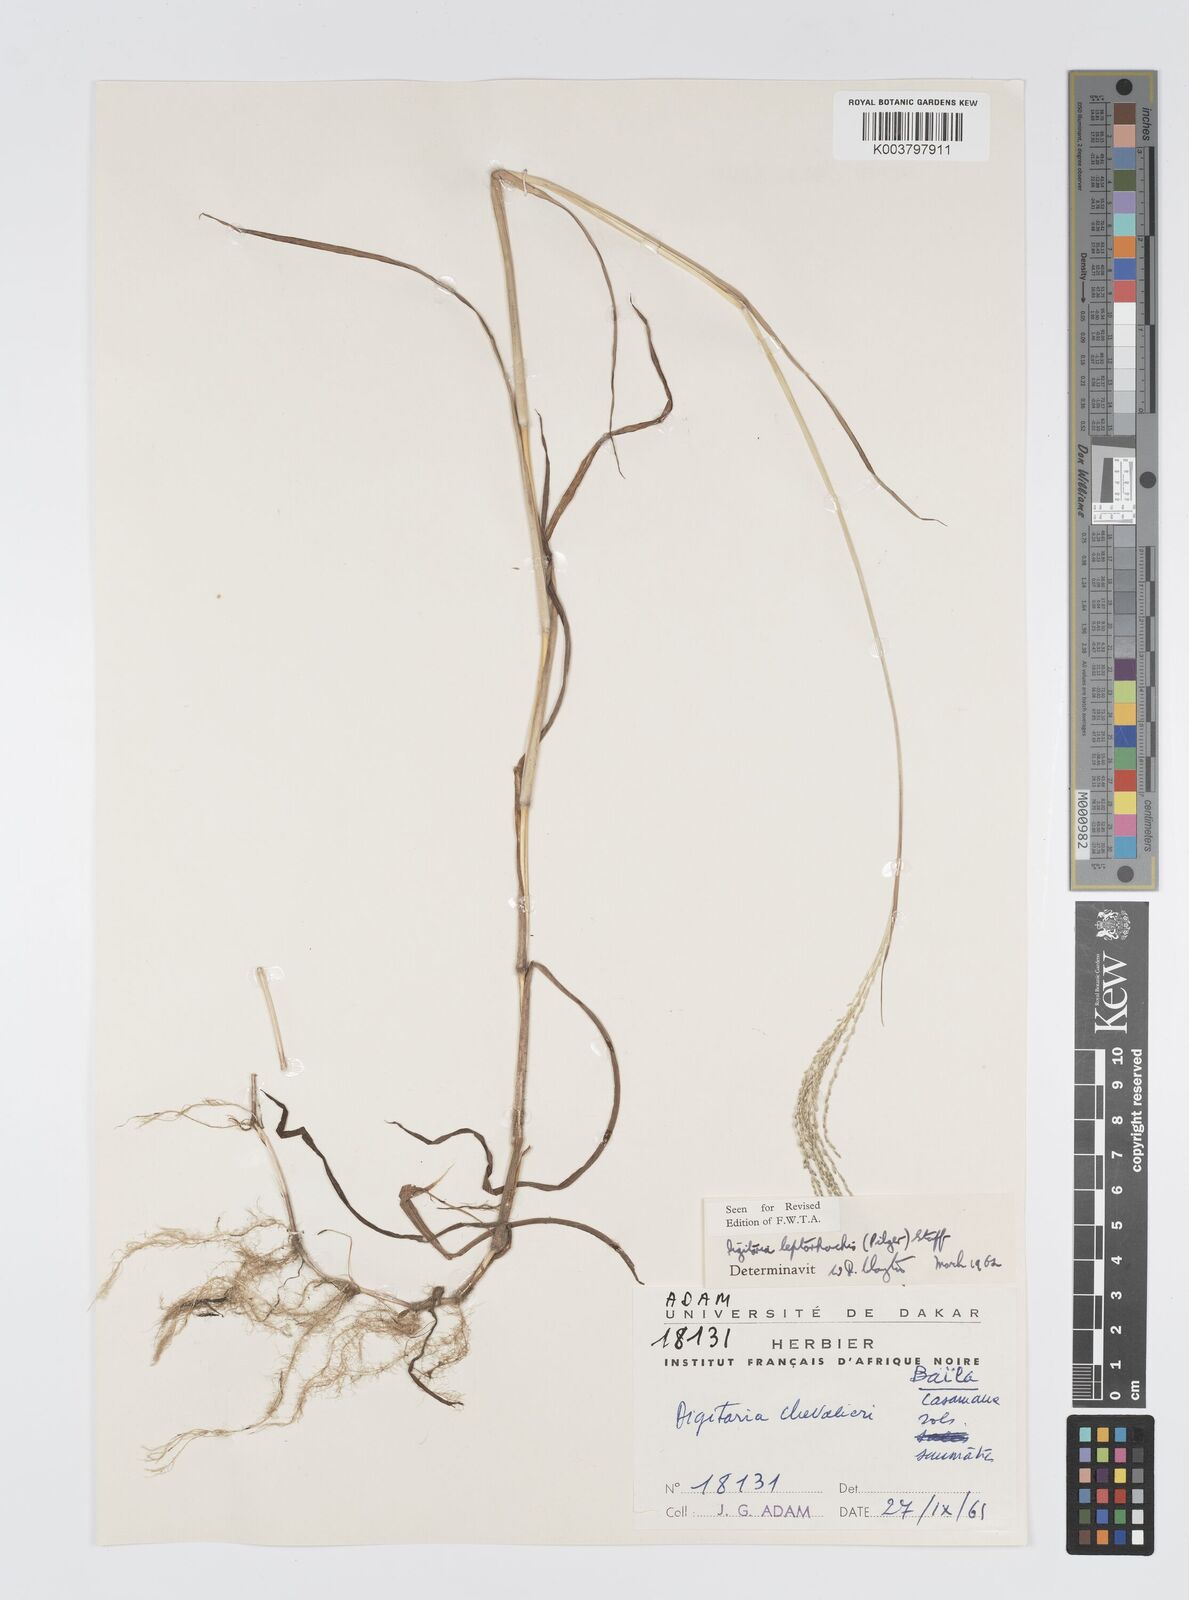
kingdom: Plantae
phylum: Tracheophyta
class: Liliopsida
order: Poales
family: Poaceae
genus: Digitaria
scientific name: Digitaria leptorhachis
